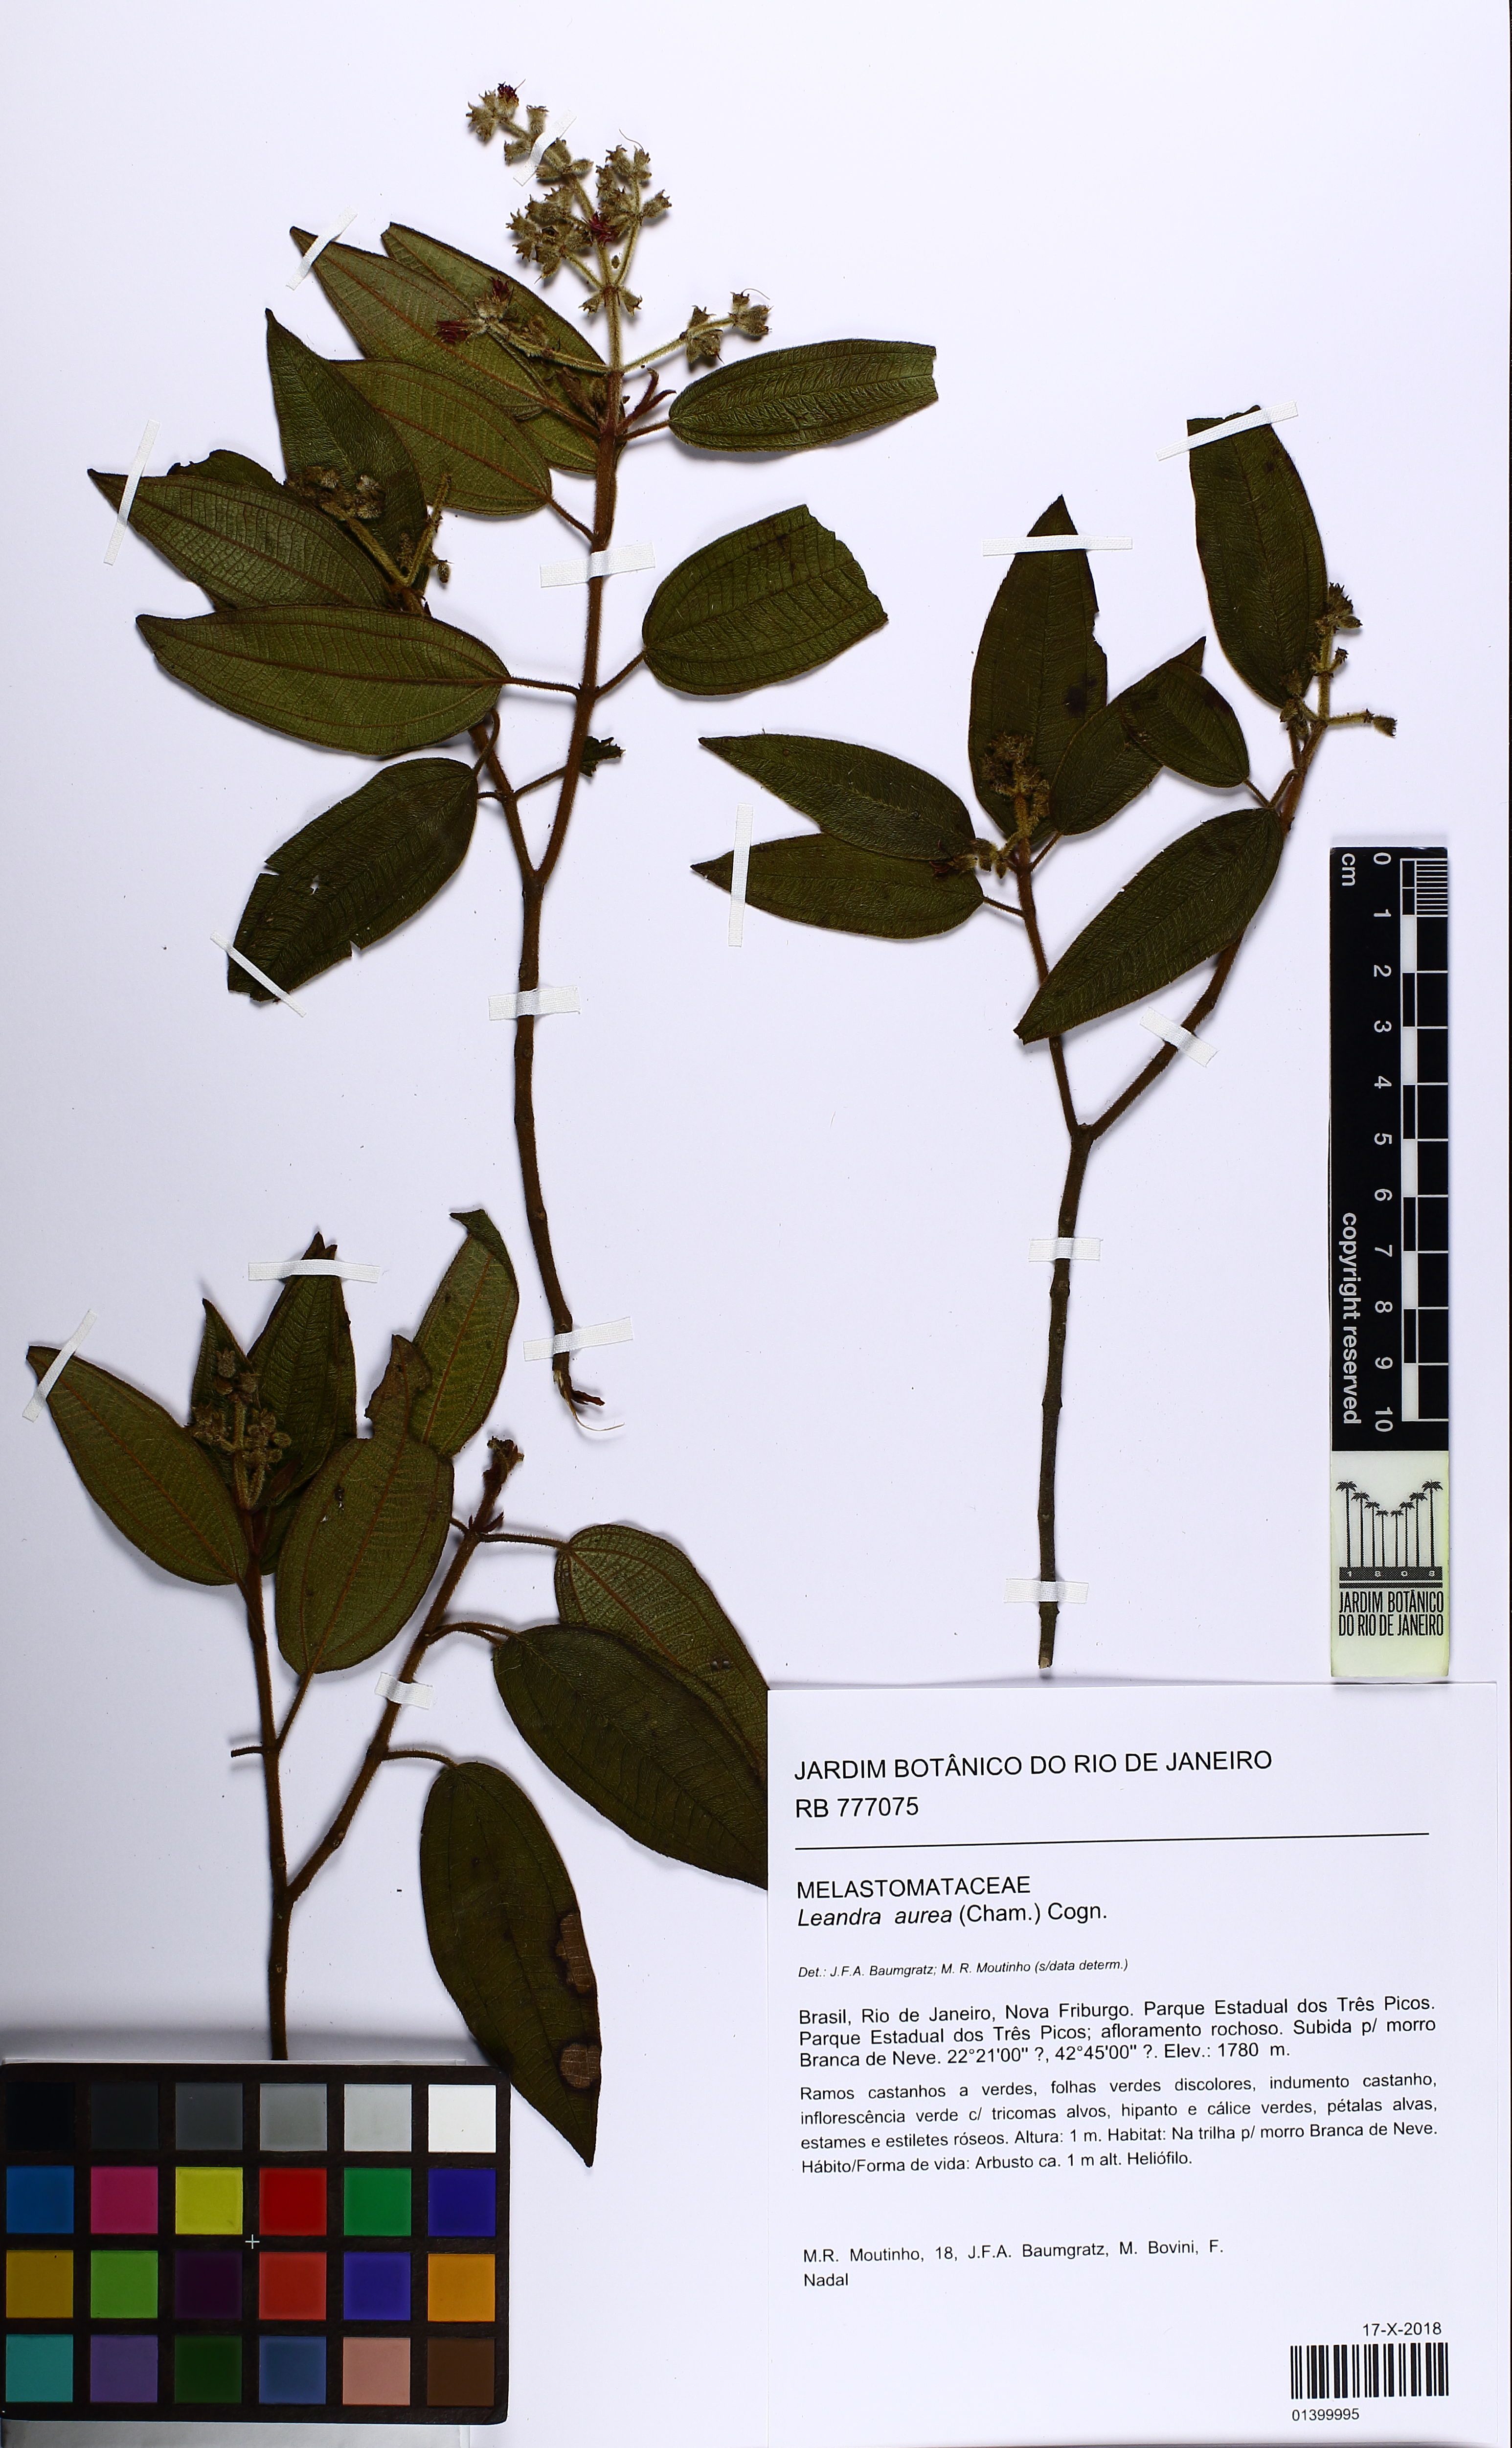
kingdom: Plantae
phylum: Tracheophyta
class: Magnoliopsida
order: Myrtales
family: Melastomataceae
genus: Miconia
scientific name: Miconia auricoma
